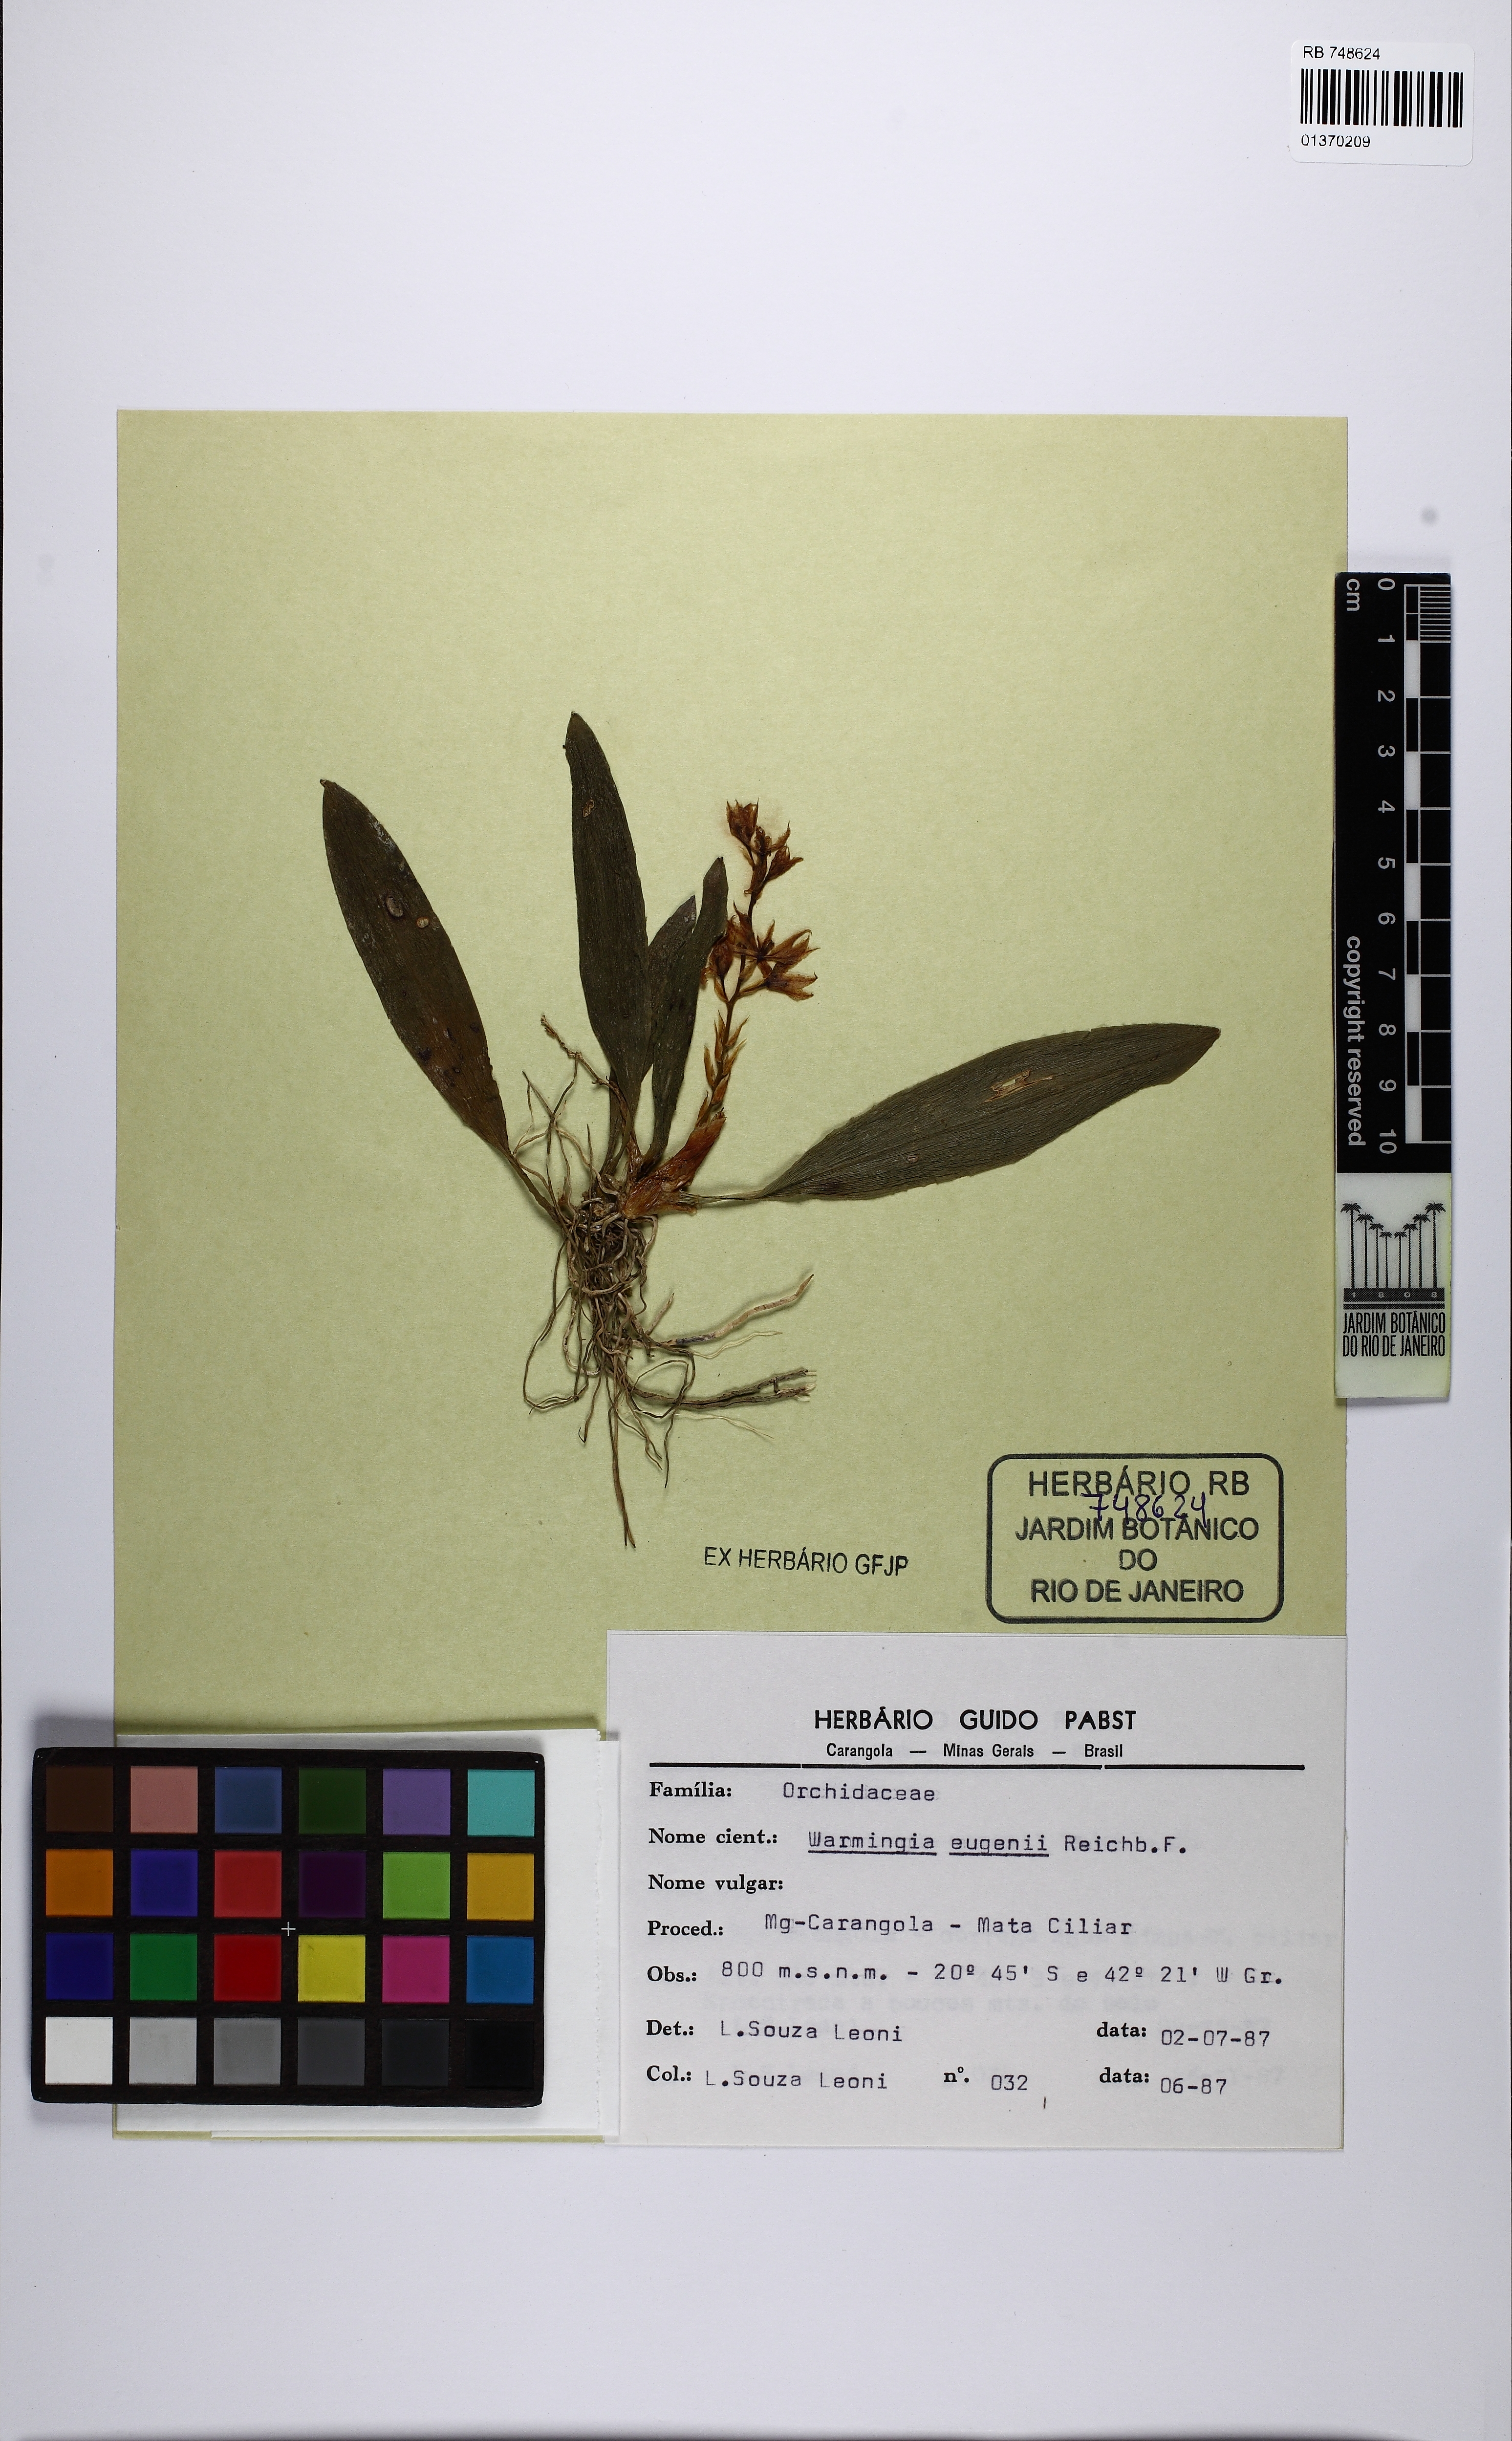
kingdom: Plantae
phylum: Tracheophyta
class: Liliopsida
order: Asparagales
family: Orchidaceae
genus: Warmingia
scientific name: Warmingia eugenii
